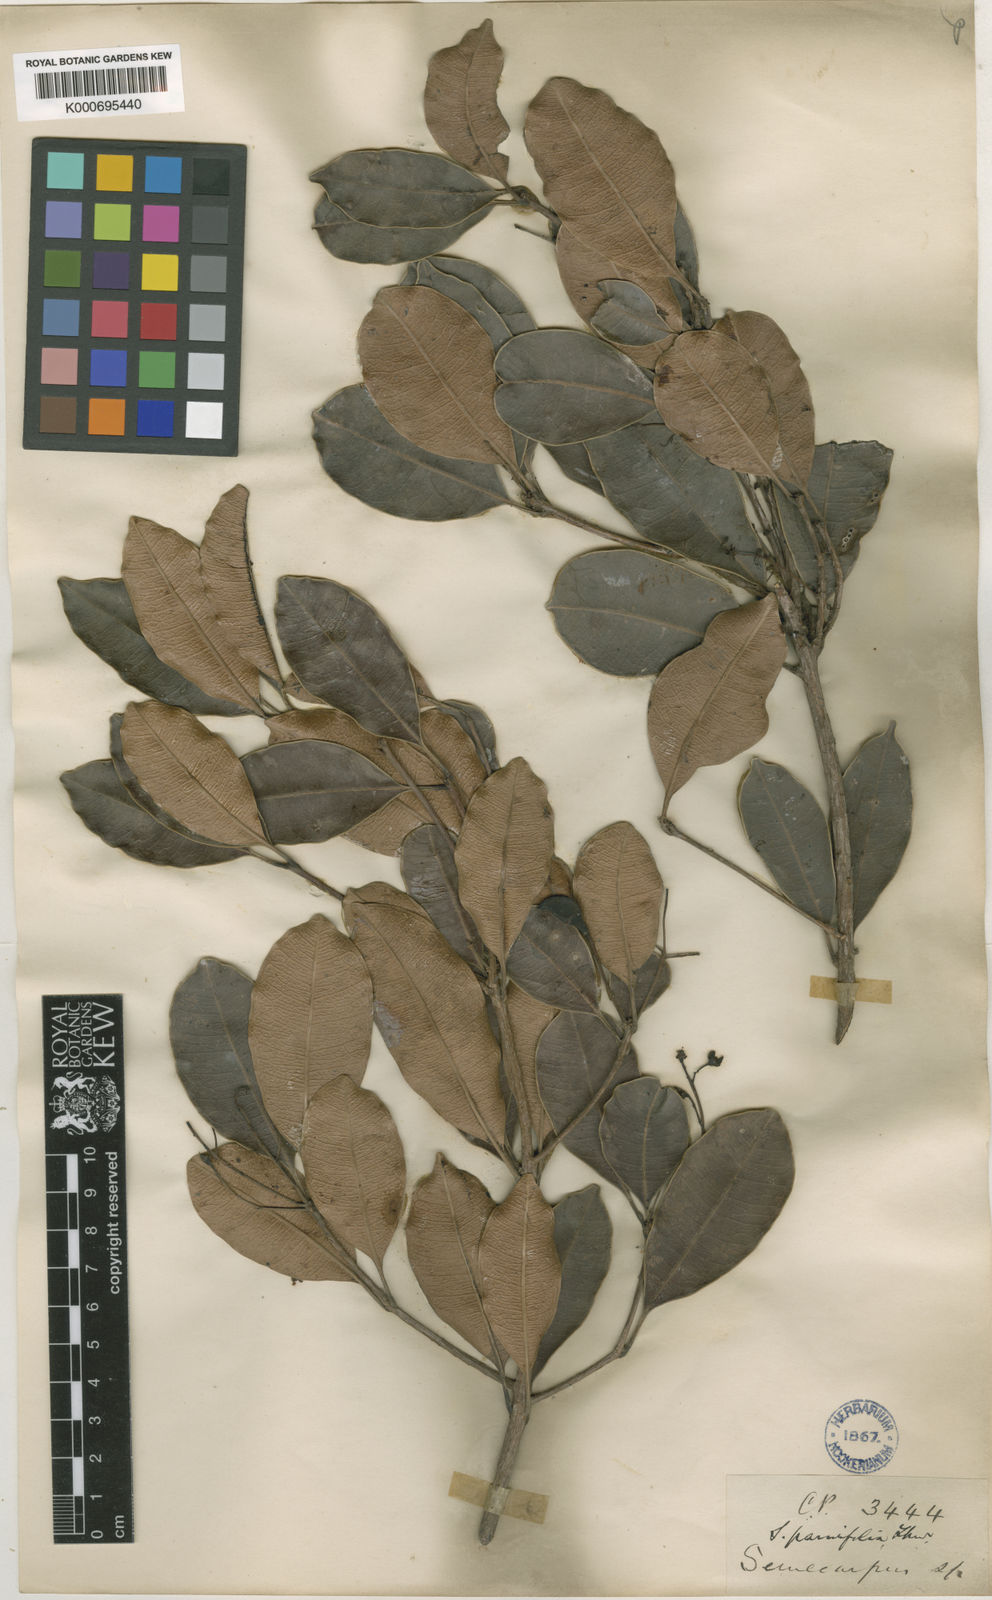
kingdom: Plantae
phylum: Tracheophyta
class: Magnoliopsida
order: Sapindales
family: Anacardiaceae
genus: Semecarpus
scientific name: Semecarpus parvifolius
